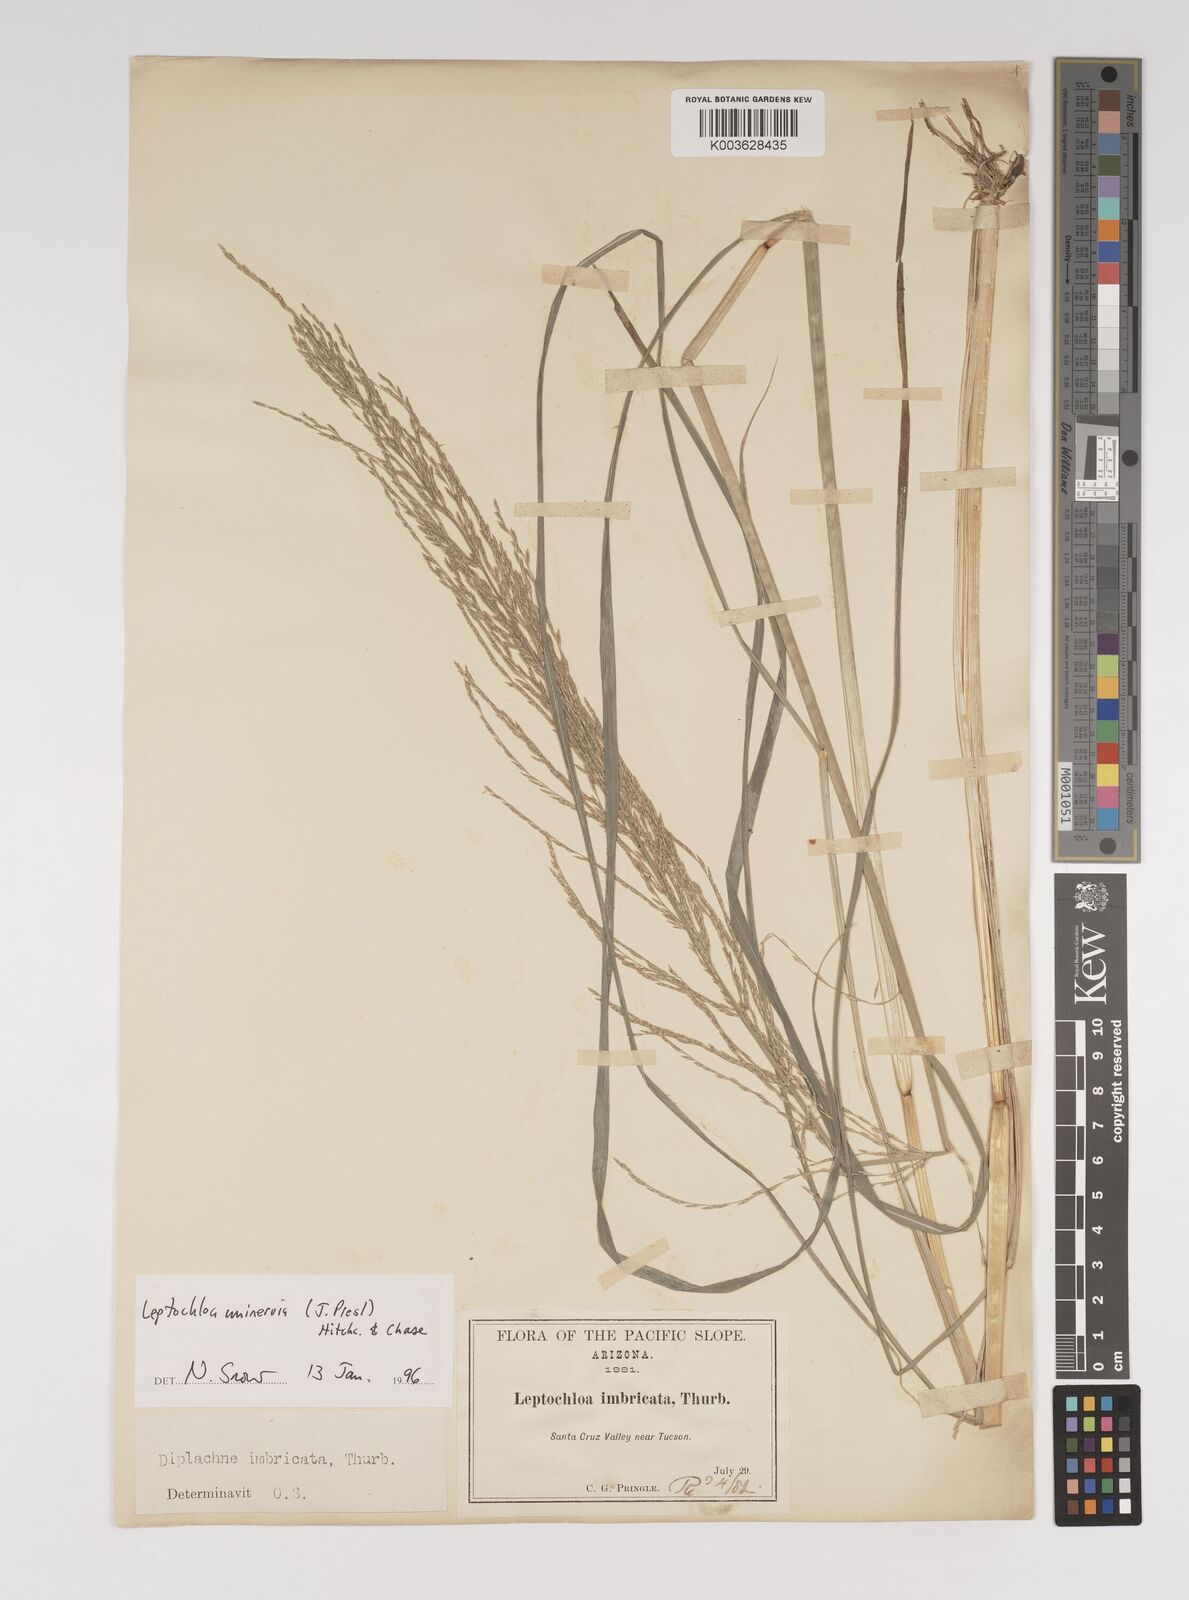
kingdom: Plantae
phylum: Tracheophyta
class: Liliopsida
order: Poales
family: Poaceae
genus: Diplachne
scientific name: Diplachne fusca
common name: Brown beetle grass
